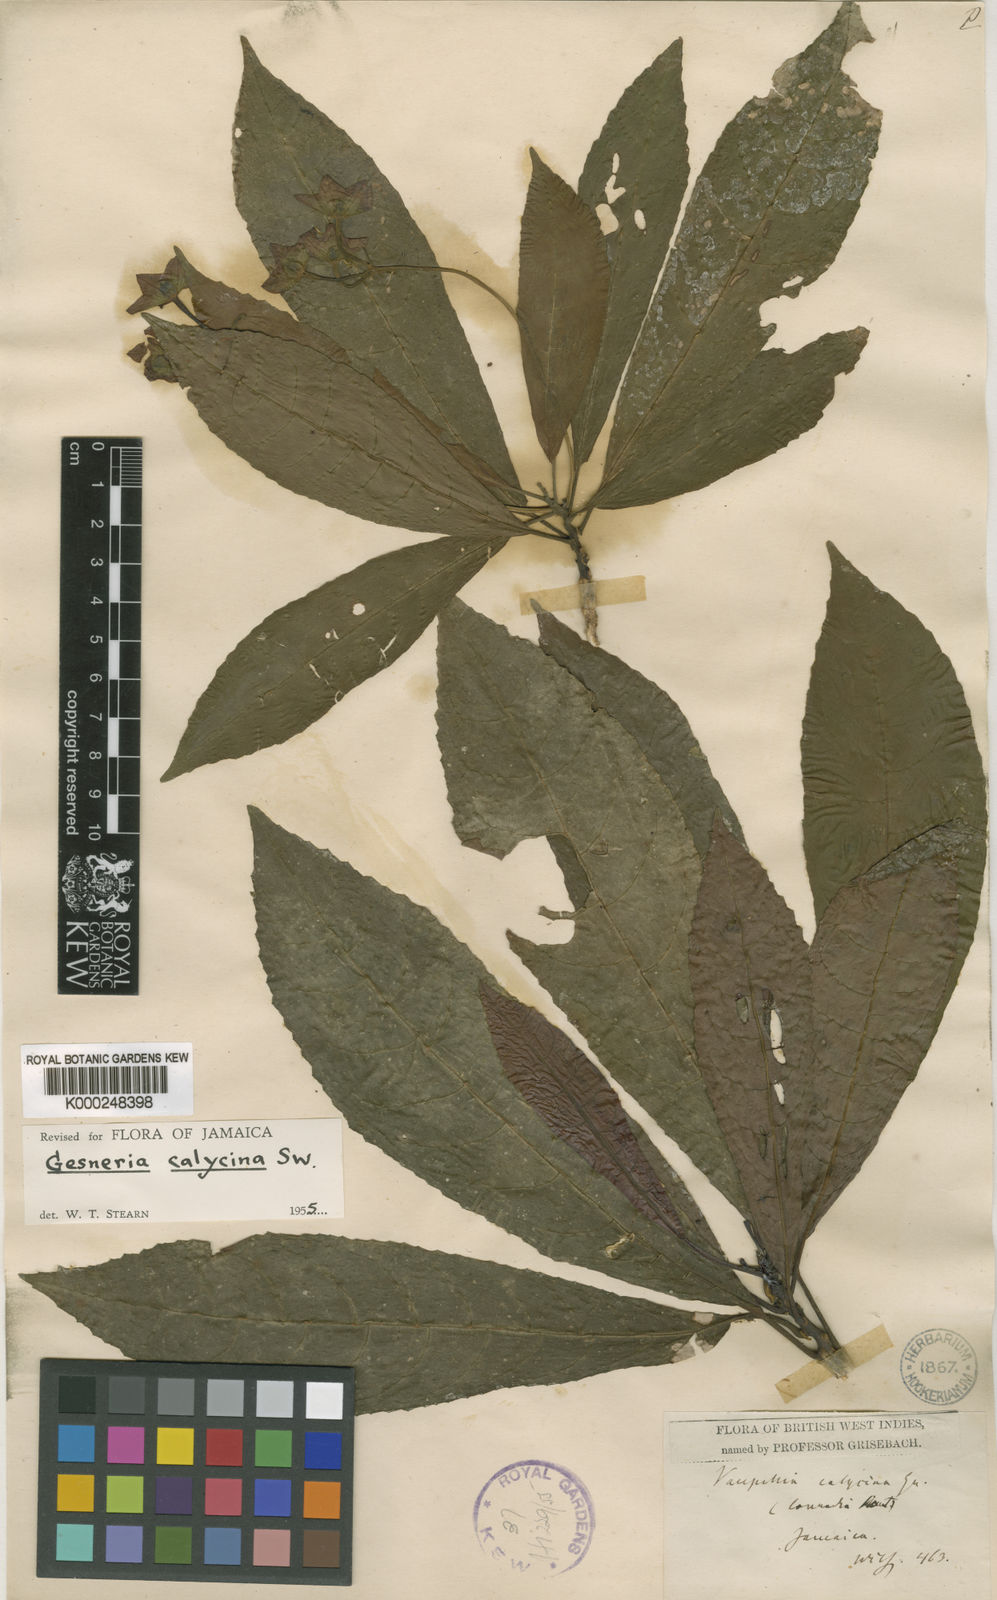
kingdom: Plantae
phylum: Tracheophyta
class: Magnoliopsida
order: Lamiales
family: Gesneriaceae
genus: Gesneria
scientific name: Gesneria calycina
